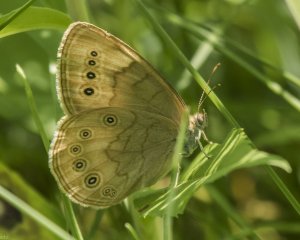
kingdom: Animalia
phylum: Arthropoda
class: Insecta
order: Lepidoptera
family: Nymphalidae
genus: Lethe
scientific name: Lethe eurydice
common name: Eyed Brown
